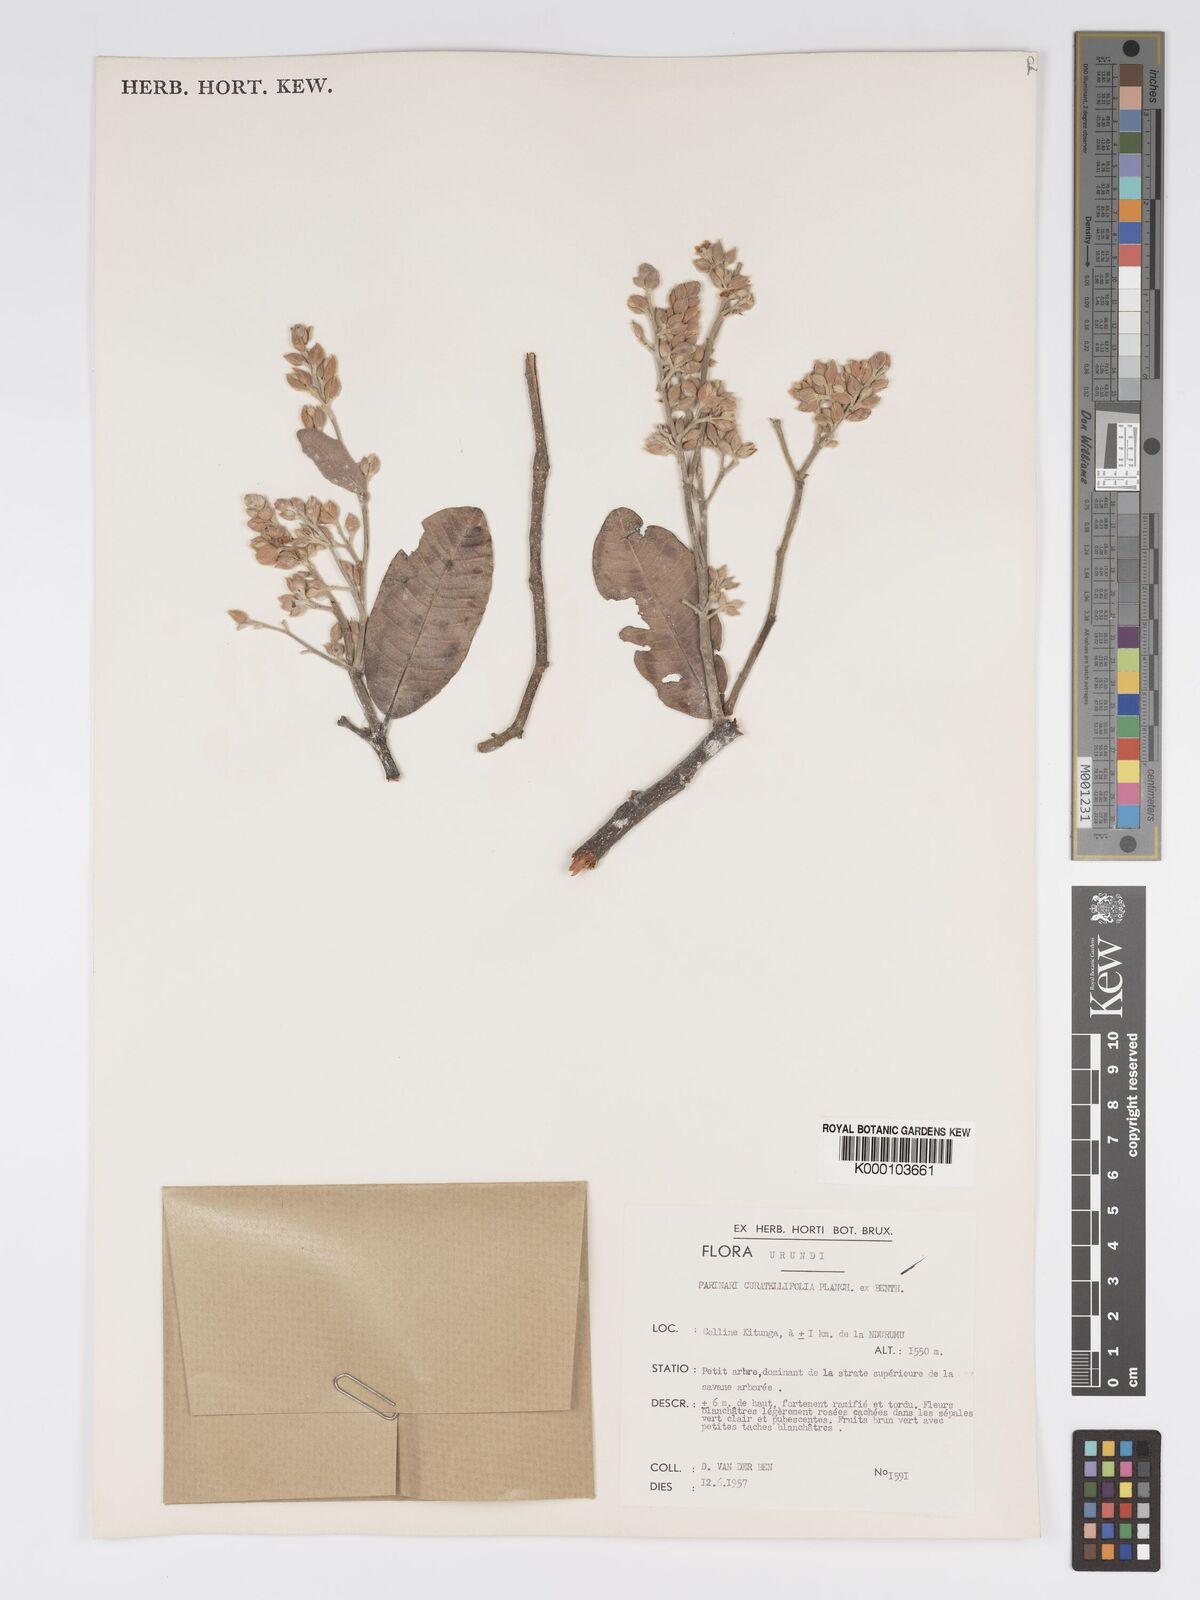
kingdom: Plantae
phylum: Tracheophyta
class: Magnoliopsida
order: Malpighiales
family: Chrysobalanaceae
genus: Parinari
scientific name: Parinari curatellifolia
